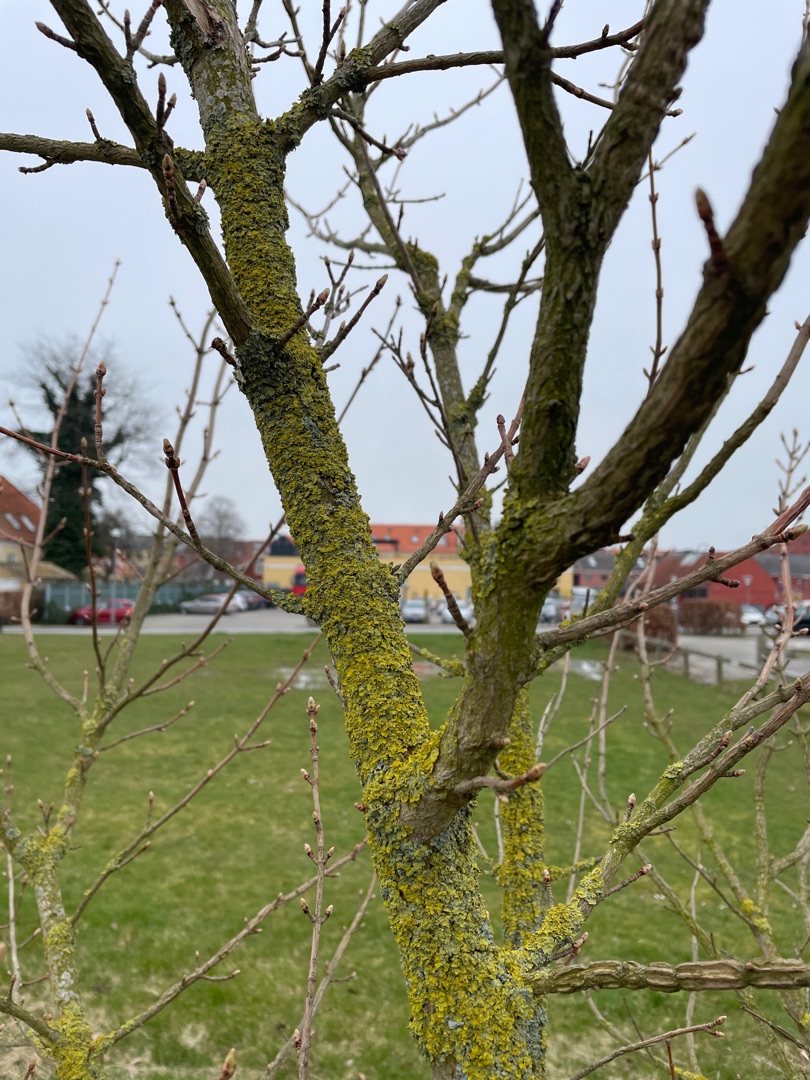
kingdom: Fungi
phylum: Ascomycota
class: Lecanoromycetes
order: Teloschistales
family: Teloschistaceae
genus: Xanthoria
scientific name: Xanthoria parietina
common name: Almindelig væggelav
